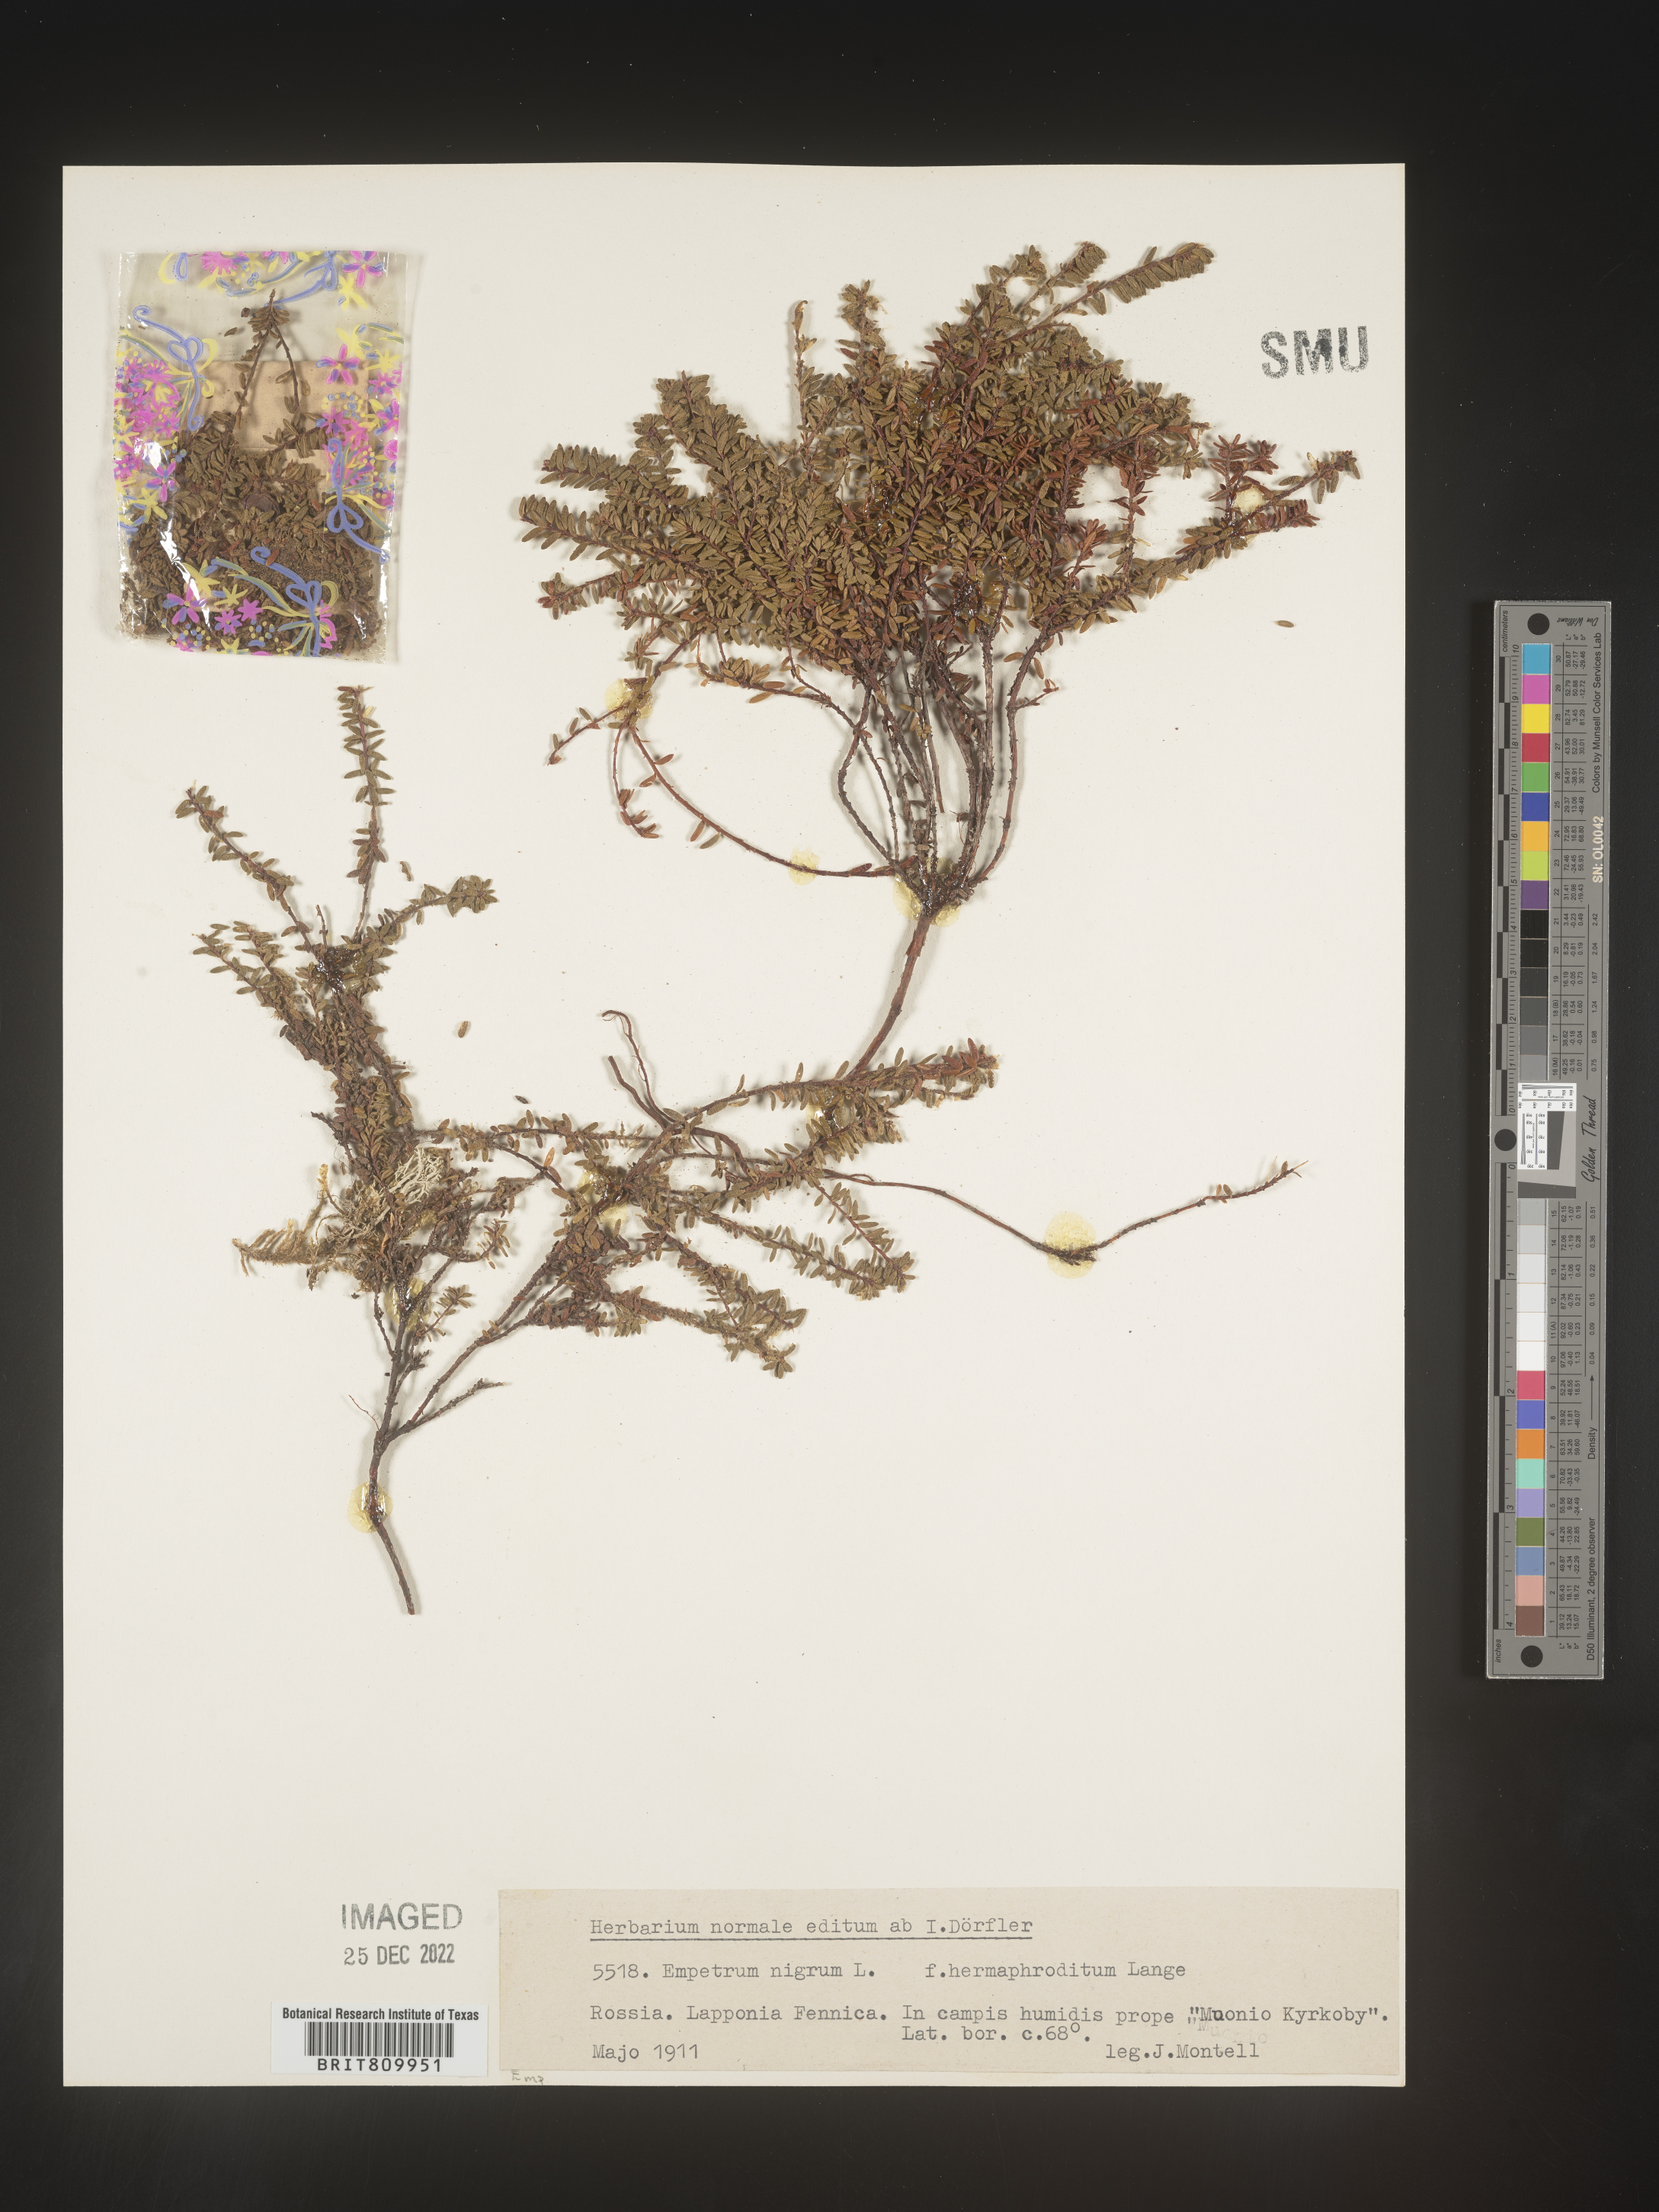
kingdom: Plantae
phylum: Tracheophyta
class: Magnoliopsida
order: Ericales
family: Ericaceae
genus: Empetrum
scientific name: Empetrum
